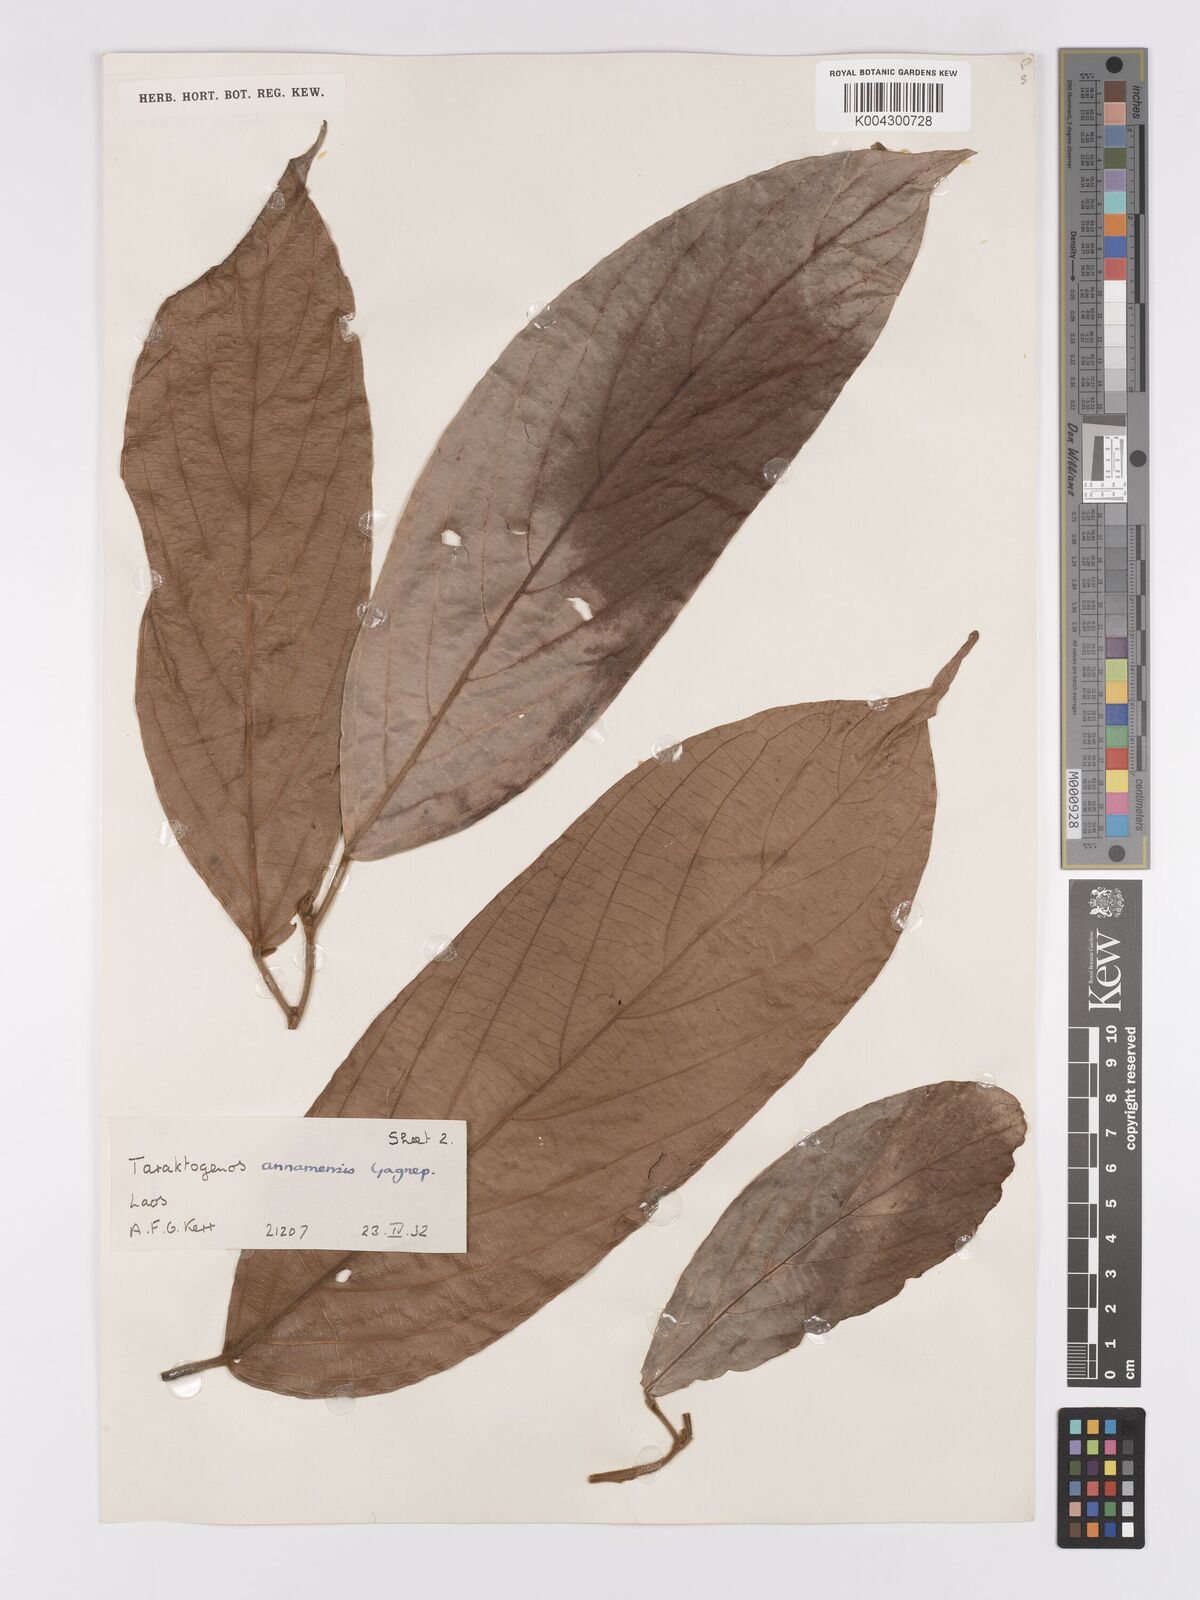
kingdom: Plantae
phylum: Tracheophyta
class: Magnoliopsida
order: Malpighiales
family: Achariaceae
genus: Hydnocarpus
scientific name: Hydnocarpus
